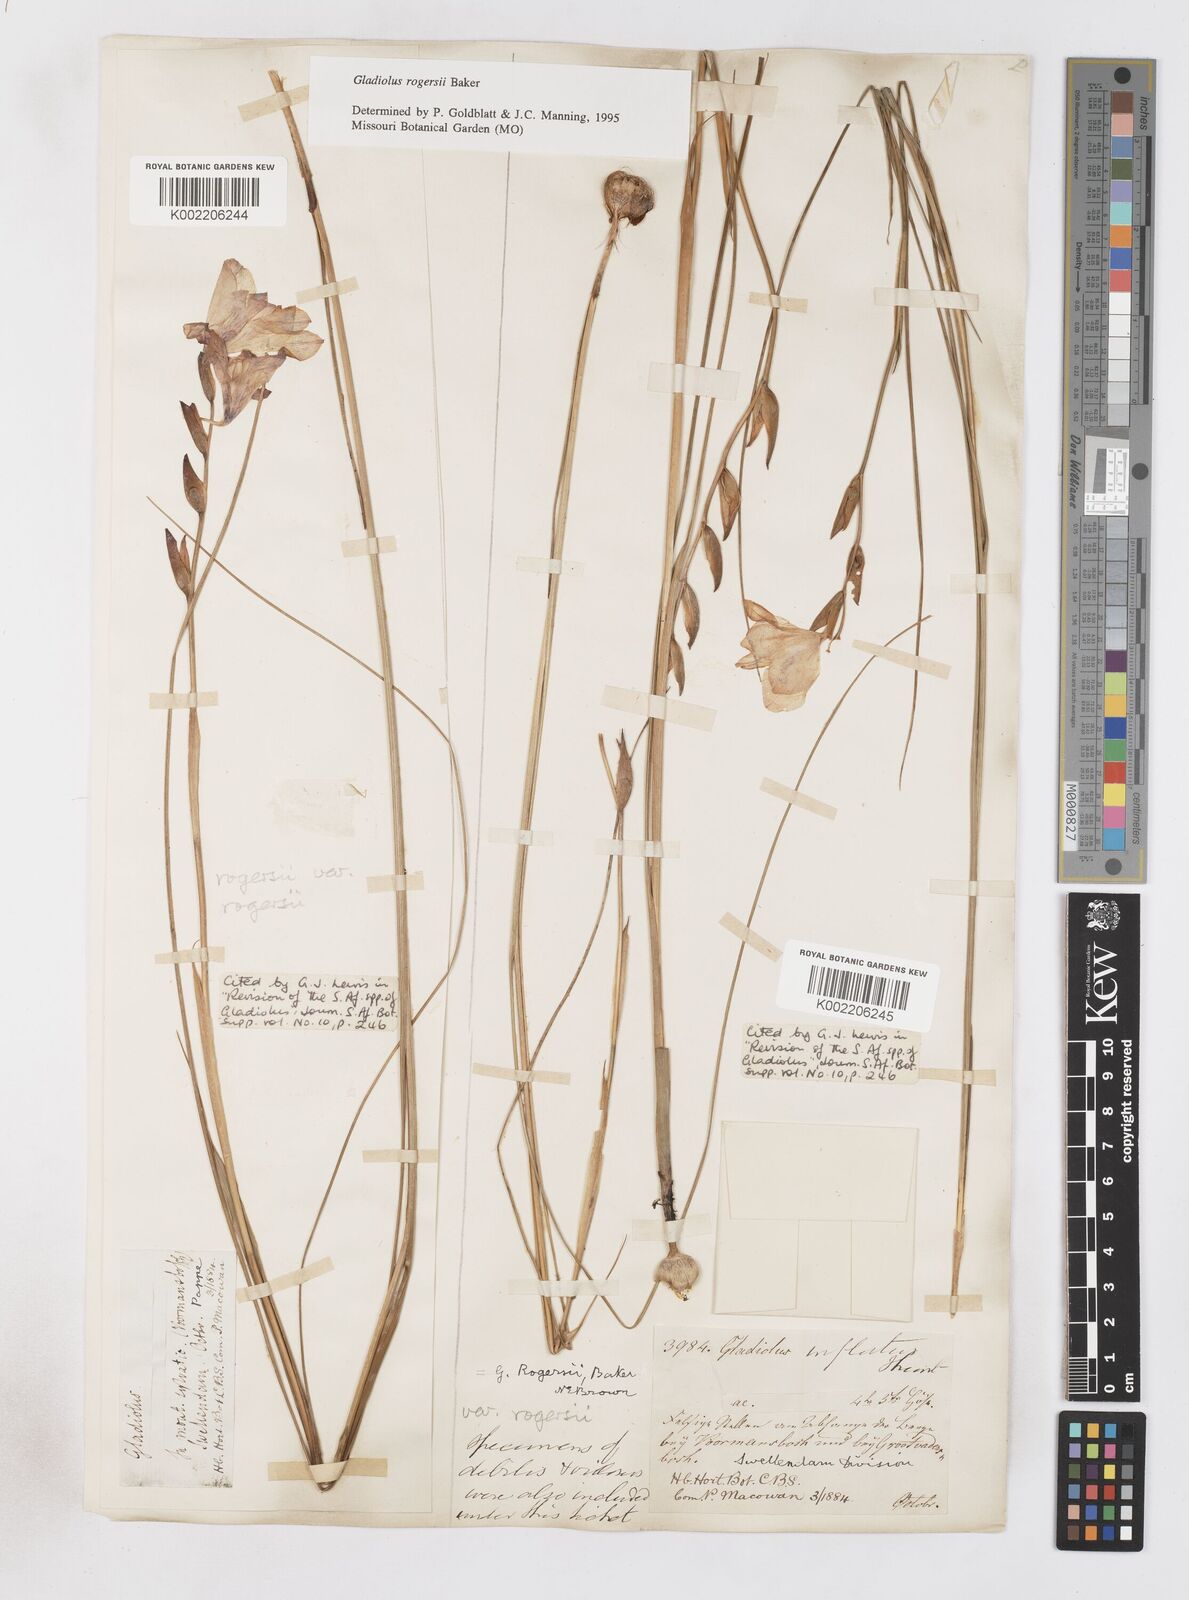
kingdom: Plantae
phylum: Tracheophyta
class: Liliopsida
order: Asparagales
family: Iridaceae
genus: Gladiolus
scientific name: Gladiolus rogersii
